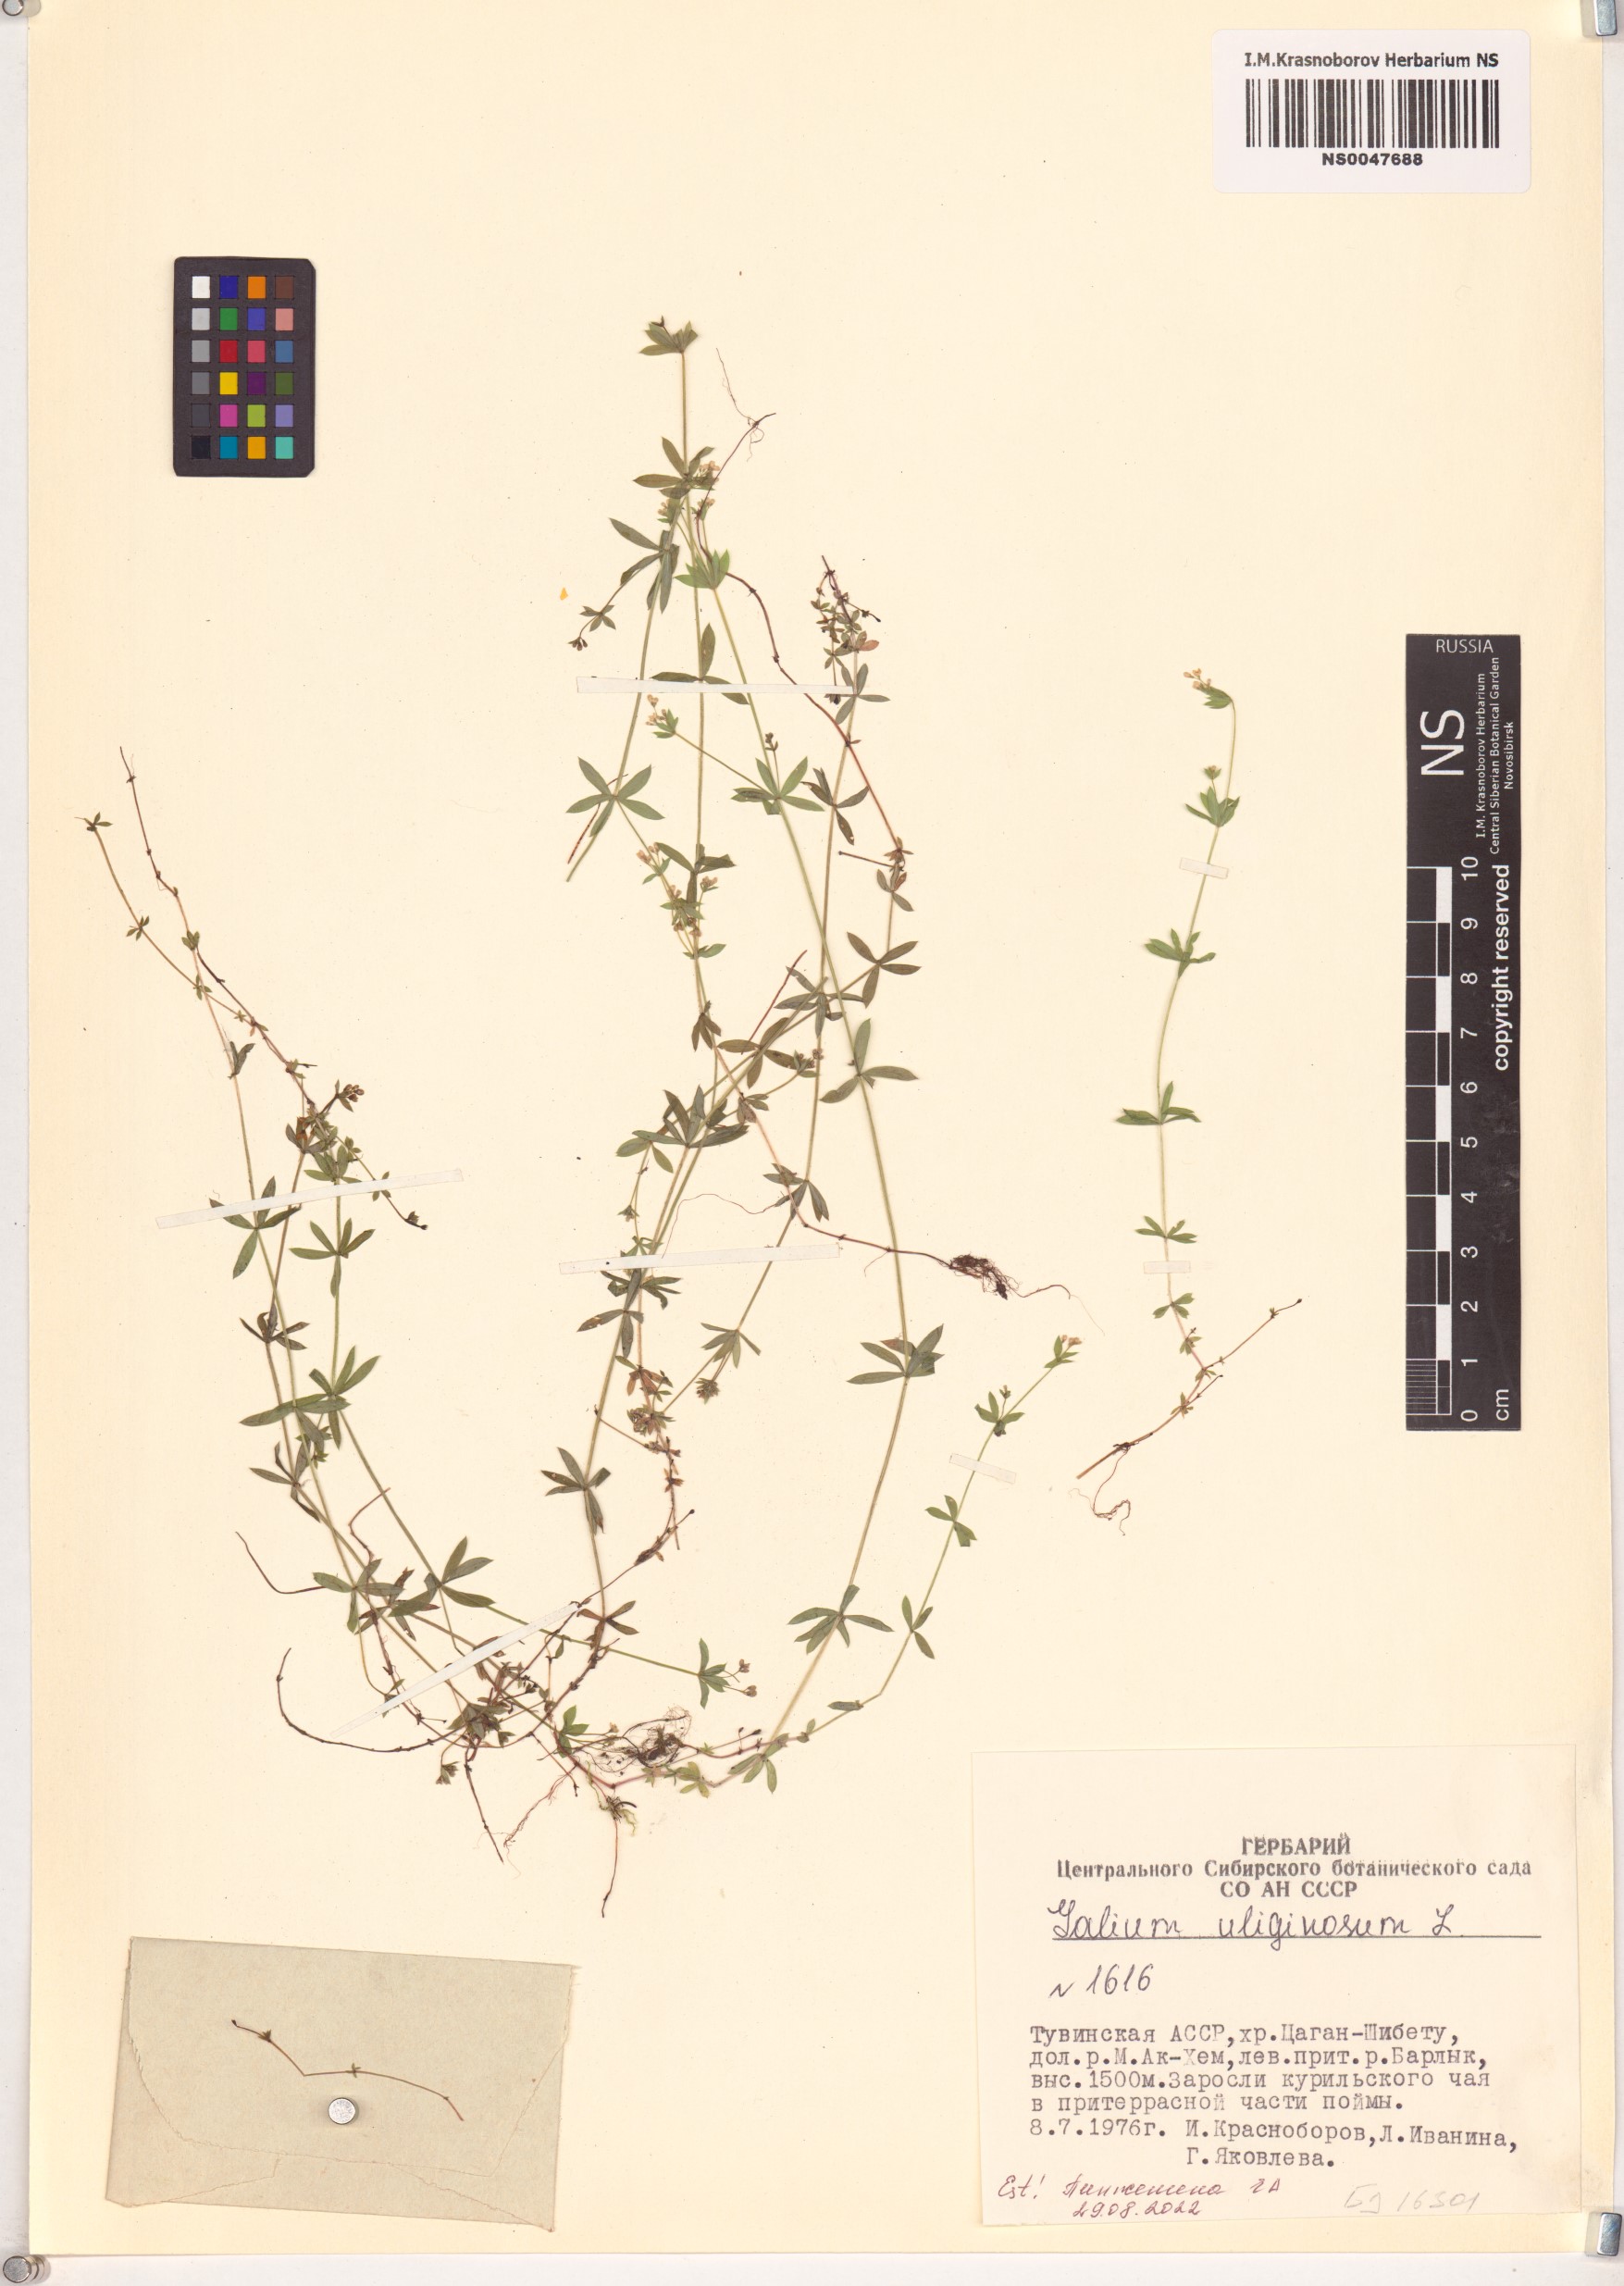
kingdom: Plantae
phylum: Tracheophyta
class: Magnoliopsida
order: Gentianales
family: Rubiaceae
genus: Galium
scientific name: Galium uliginosum
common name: Fen bedstraw
